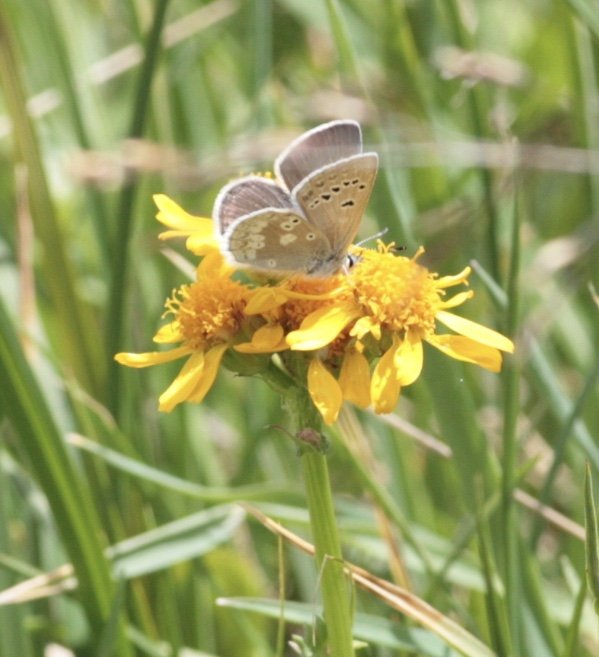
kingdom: Animalia
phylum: Arthropoda
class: Insecta
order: Lepidoptera
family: Lycaenidae
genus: Icaricia
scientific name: Icaricia icarioides
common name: Boisduval's Blue
